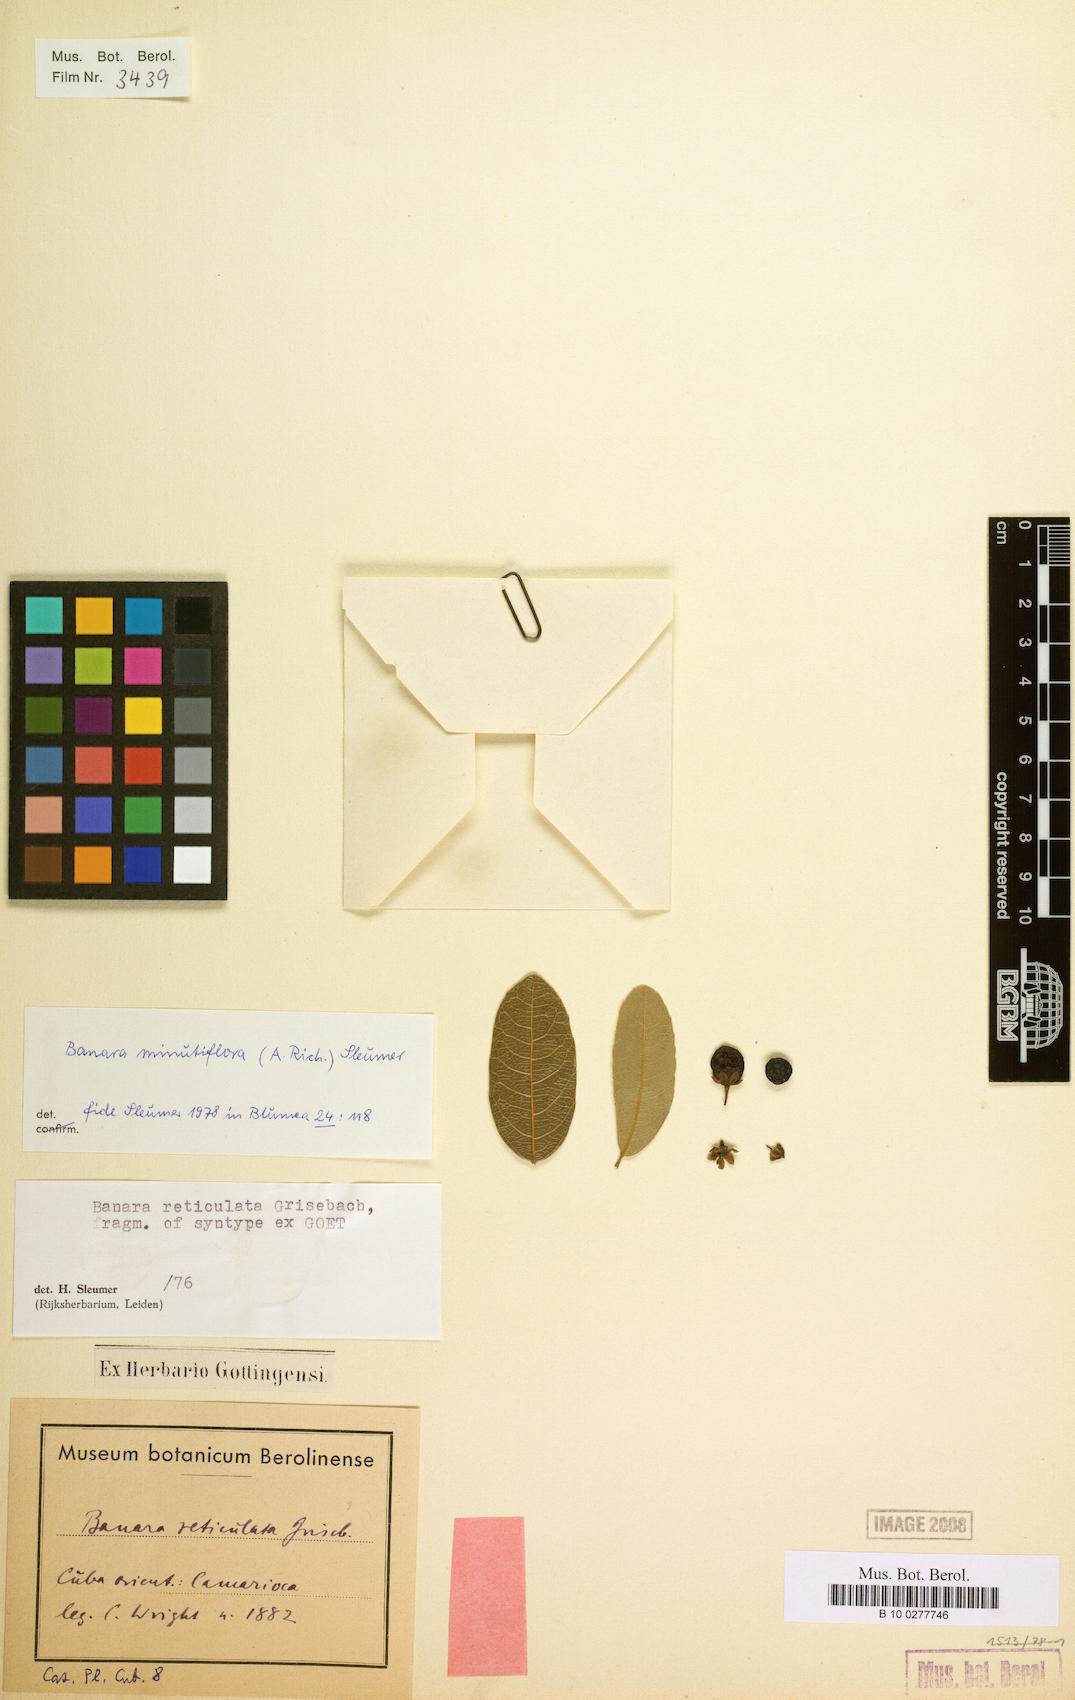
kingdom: Plantae
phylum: Tracheophyta
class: Magnoliopsida
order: Malpighiales
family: Salicaceae
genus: Banara
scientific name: Banara minutiflora
